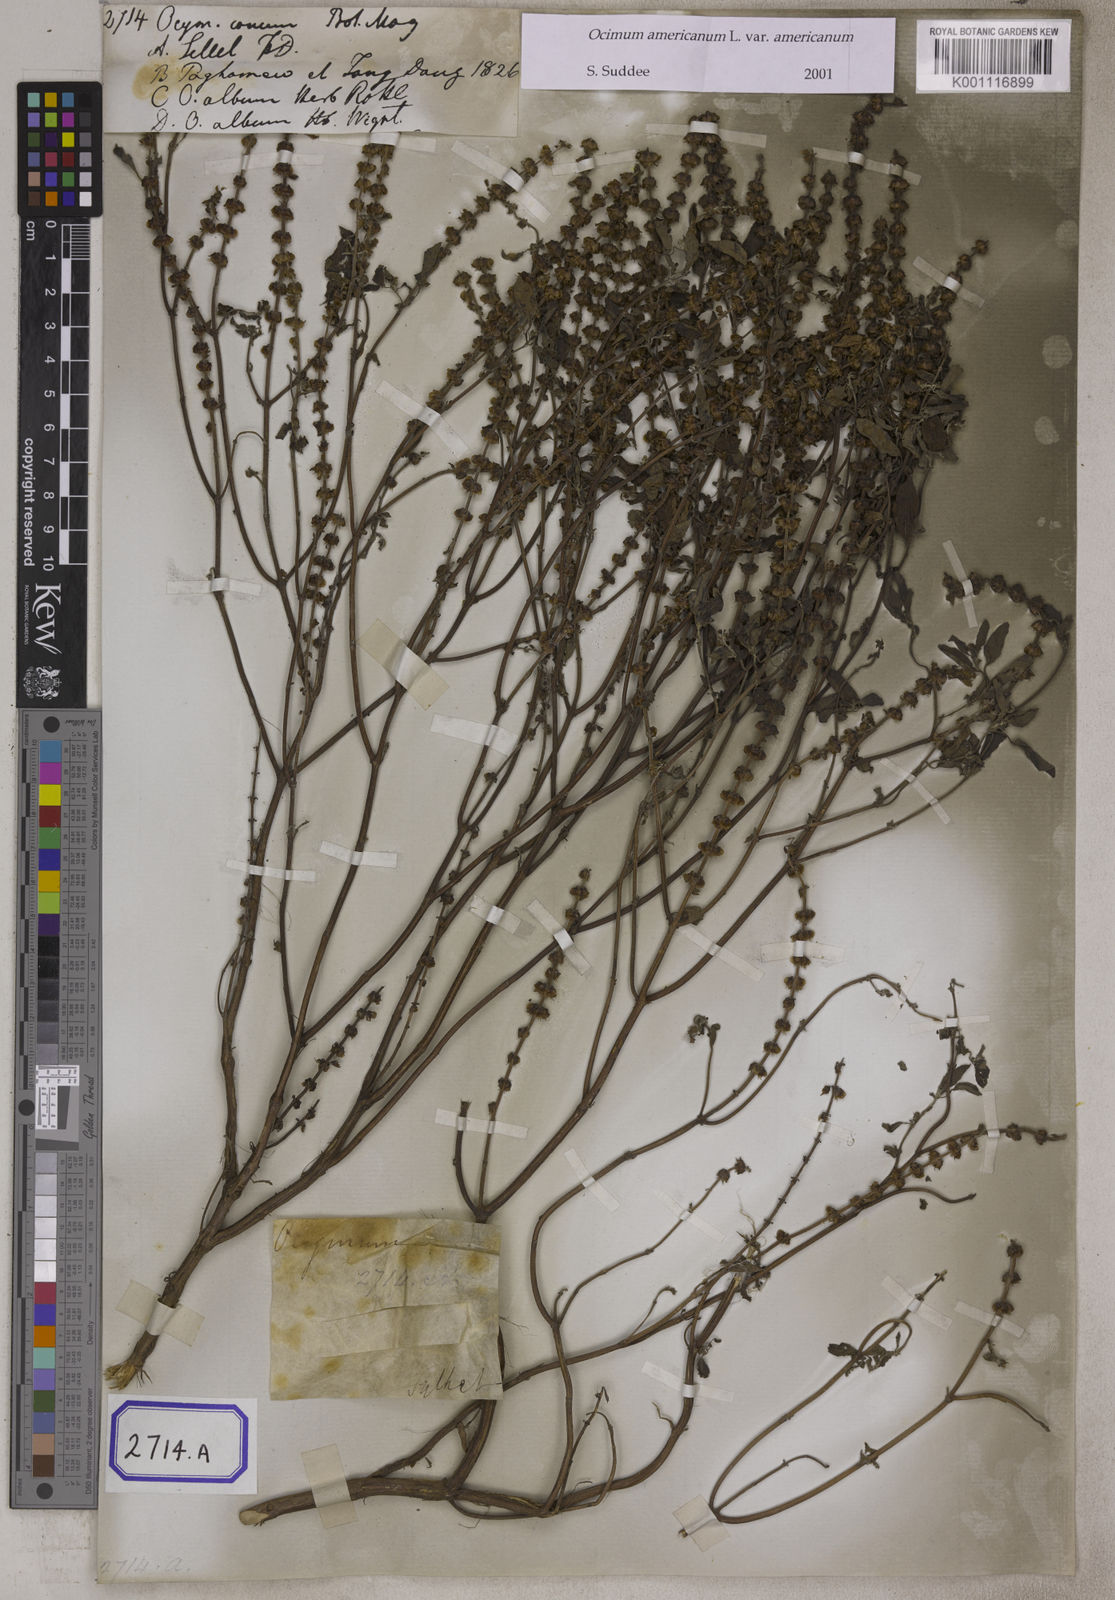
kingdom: Plantae
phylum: Tracheophyta
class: Magnoliopsida
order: Lamiales
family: Lamiaceae
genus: Ocimum
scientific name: Ocimum americanum
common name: American basil
